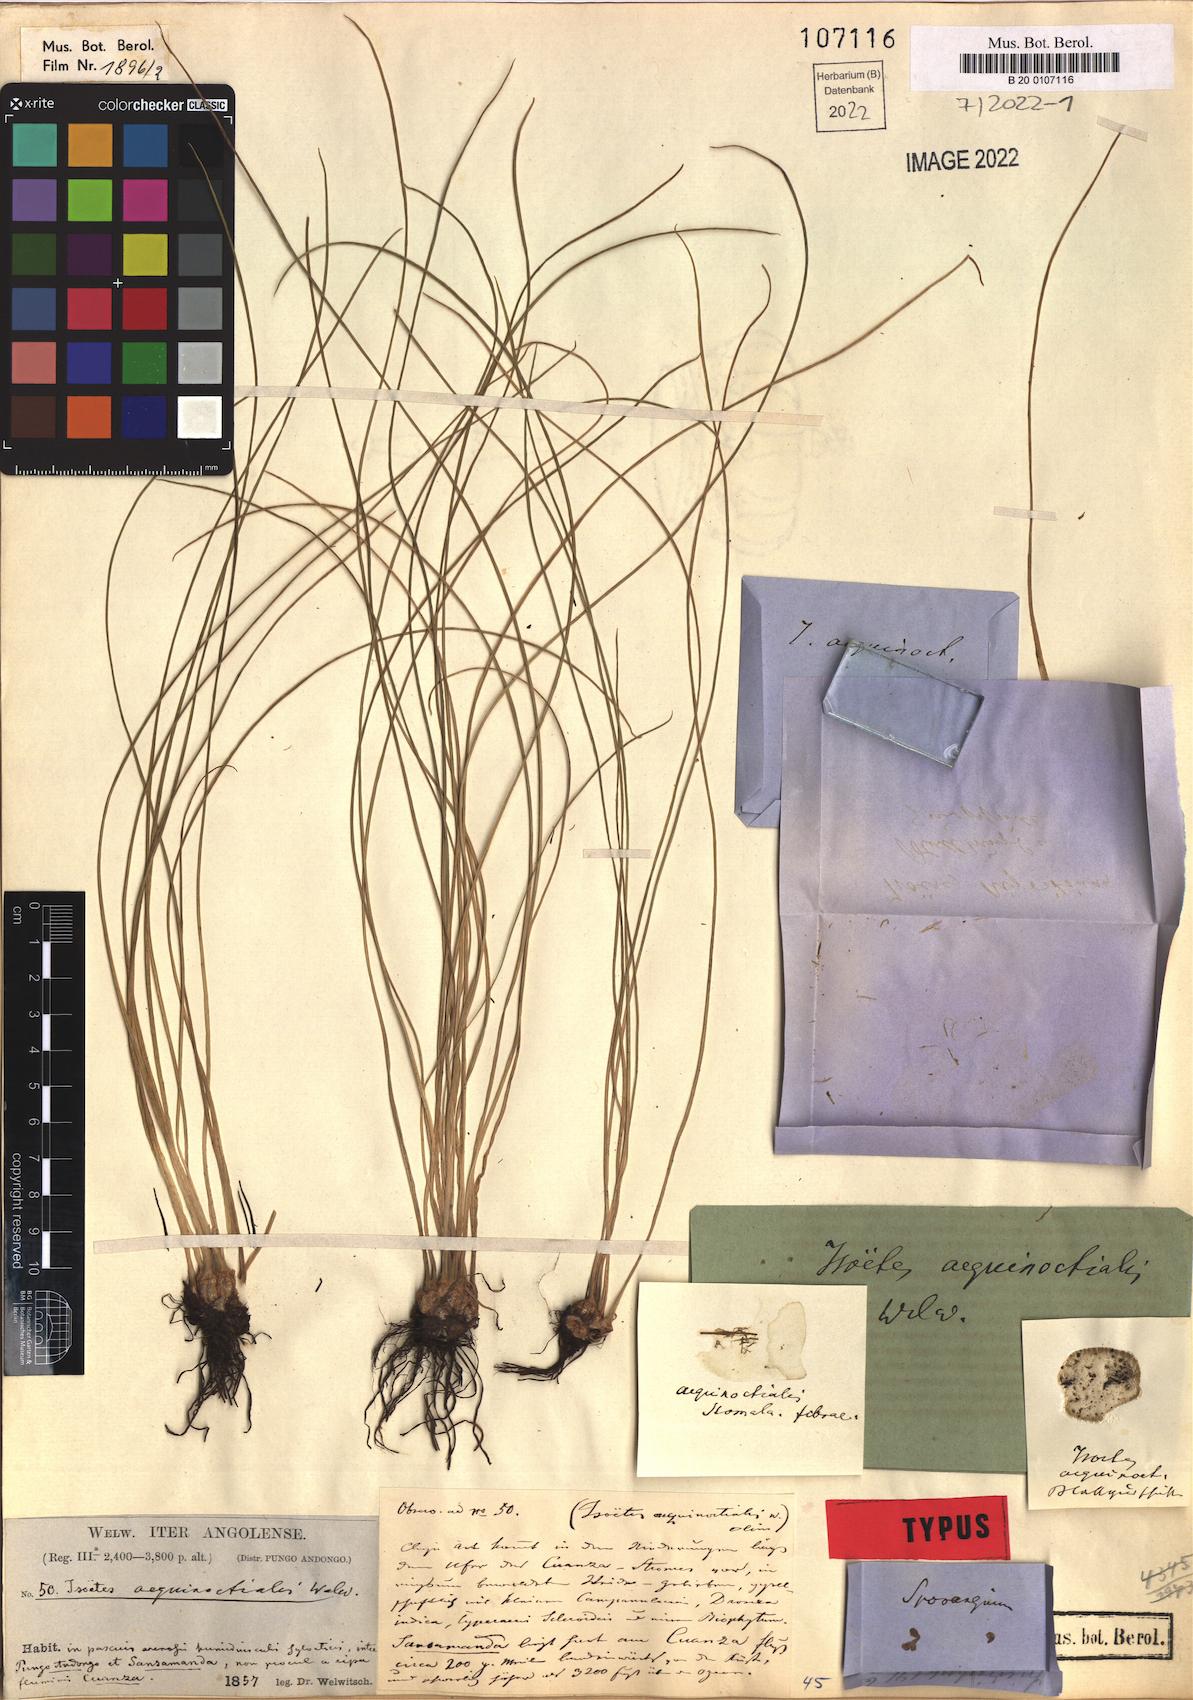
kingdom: Plantae
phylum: Tracheophyta
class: Lycopodiopsida
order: Isoetales
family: Isoetaceae
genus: Isoetes
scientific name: Isoetes aequinoctialis
